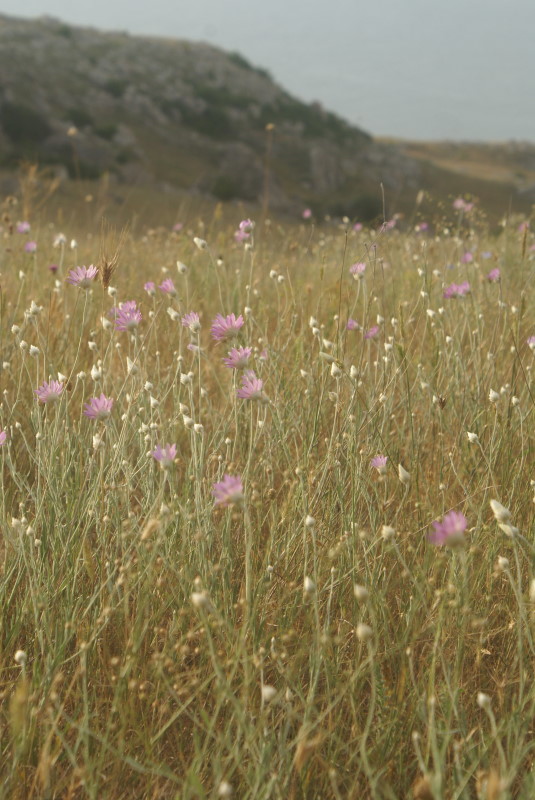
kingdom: Plantae
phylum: Tracheophyta
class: Magnoliopsida
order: Asterales
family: Asteraceae
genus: Xeranthemum
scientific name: Xeranthemum annuum
